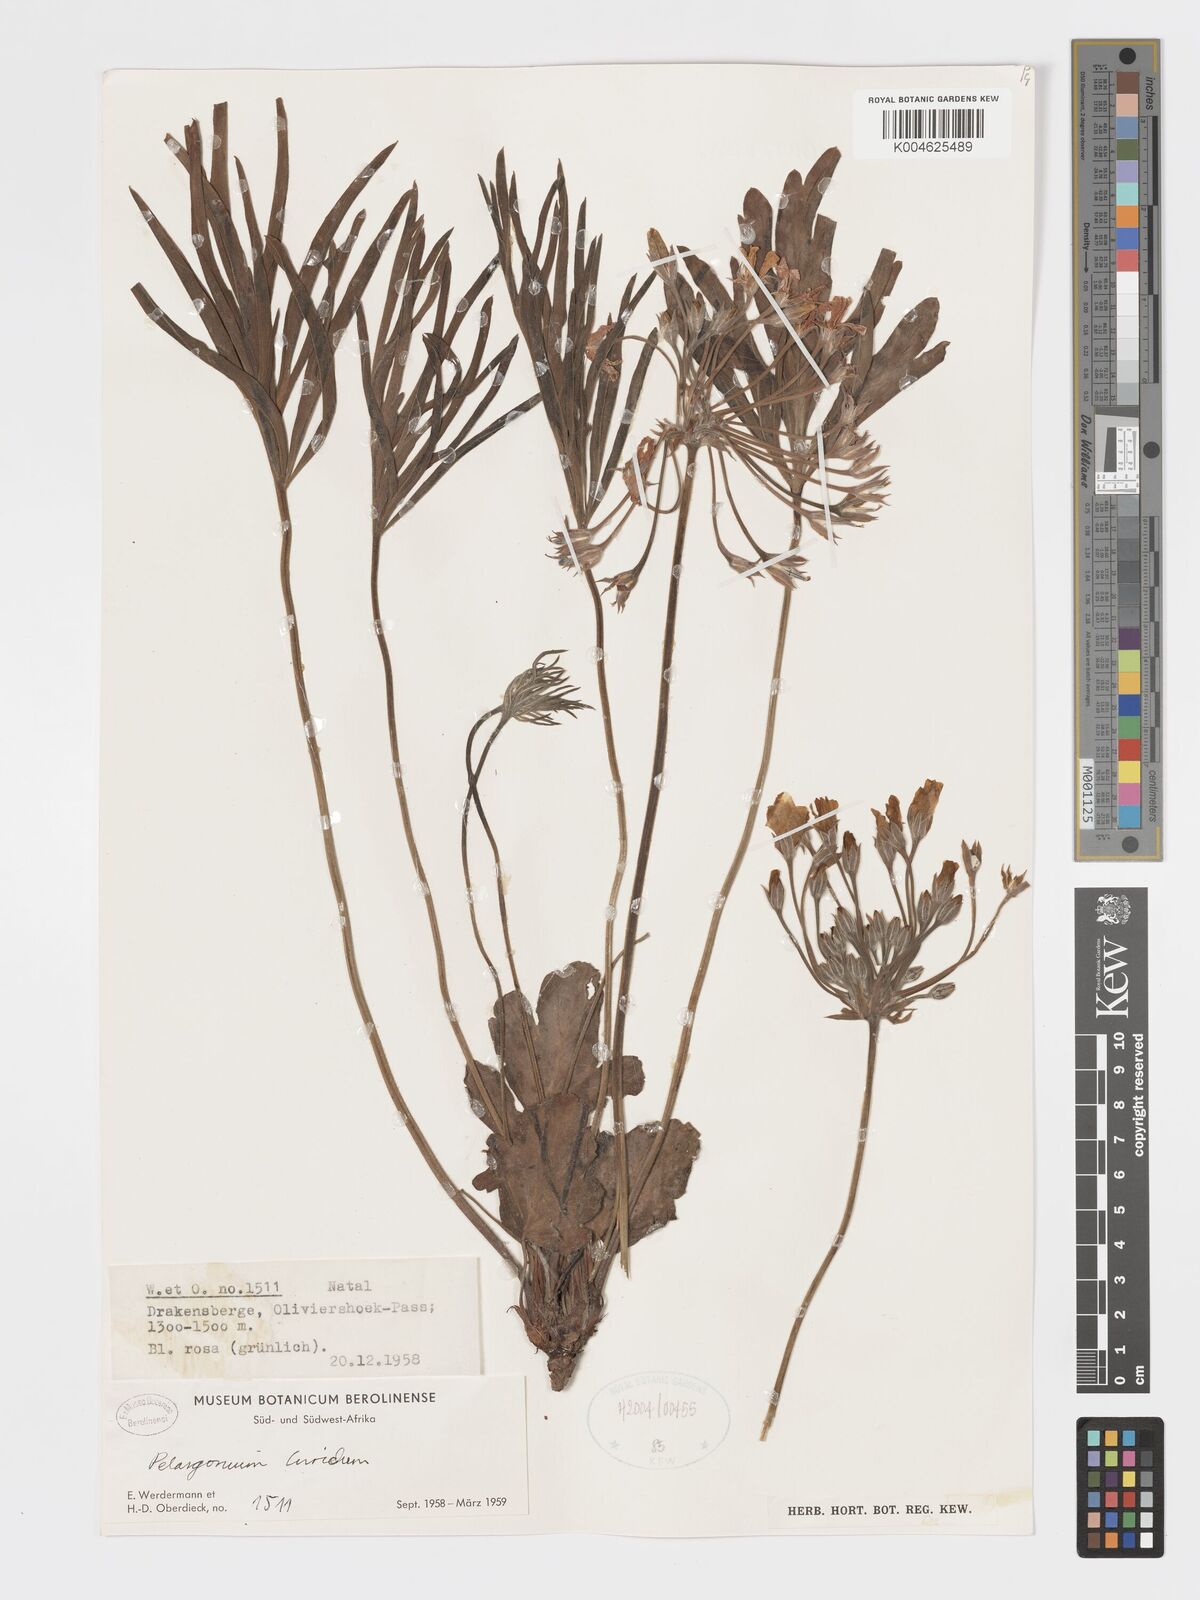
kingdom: Plantae
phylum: Tracheophyta
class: Magnoliopsida
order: Geraniales
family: Geraniaceae
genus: Pelargonium
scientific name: Pelargonium luridum
